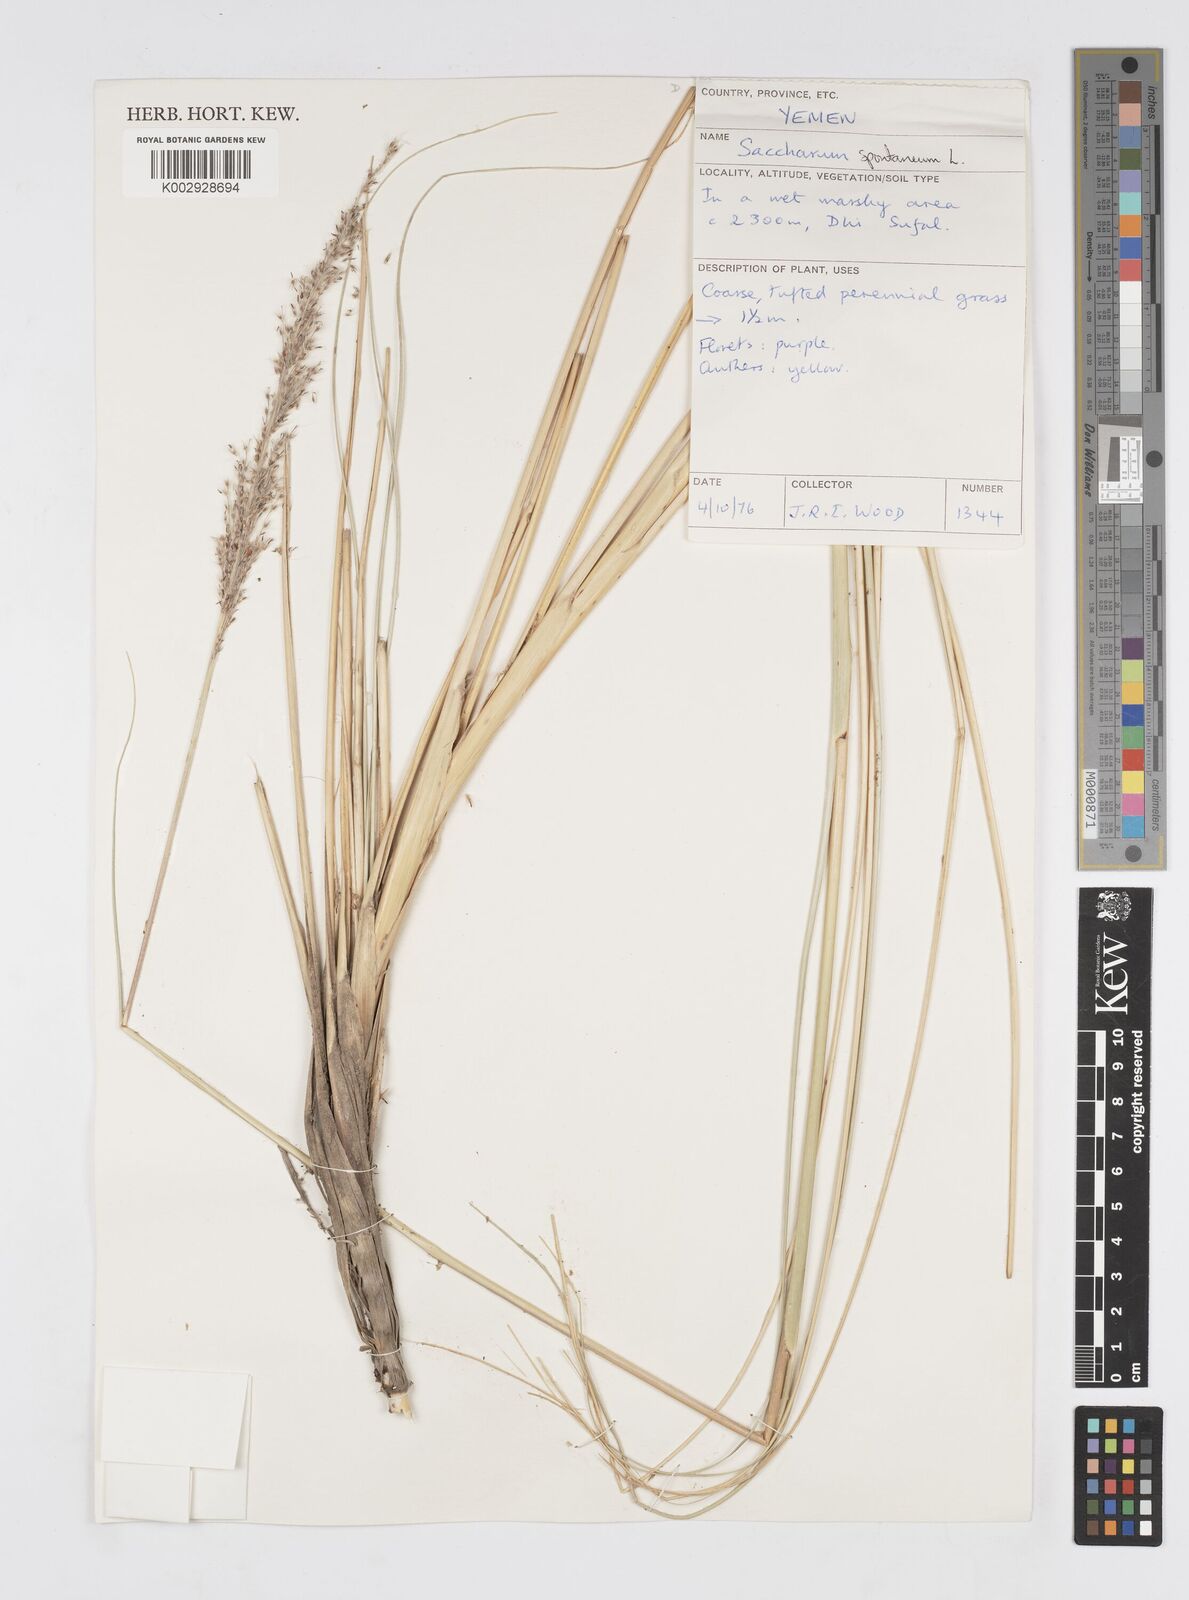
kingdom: Plantae
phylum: Tracheophyta
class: Liliopsida
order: Poales
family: Poaceae
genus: Saccharum
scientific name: Saccharum spontaneum
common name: Wild sugarcane
